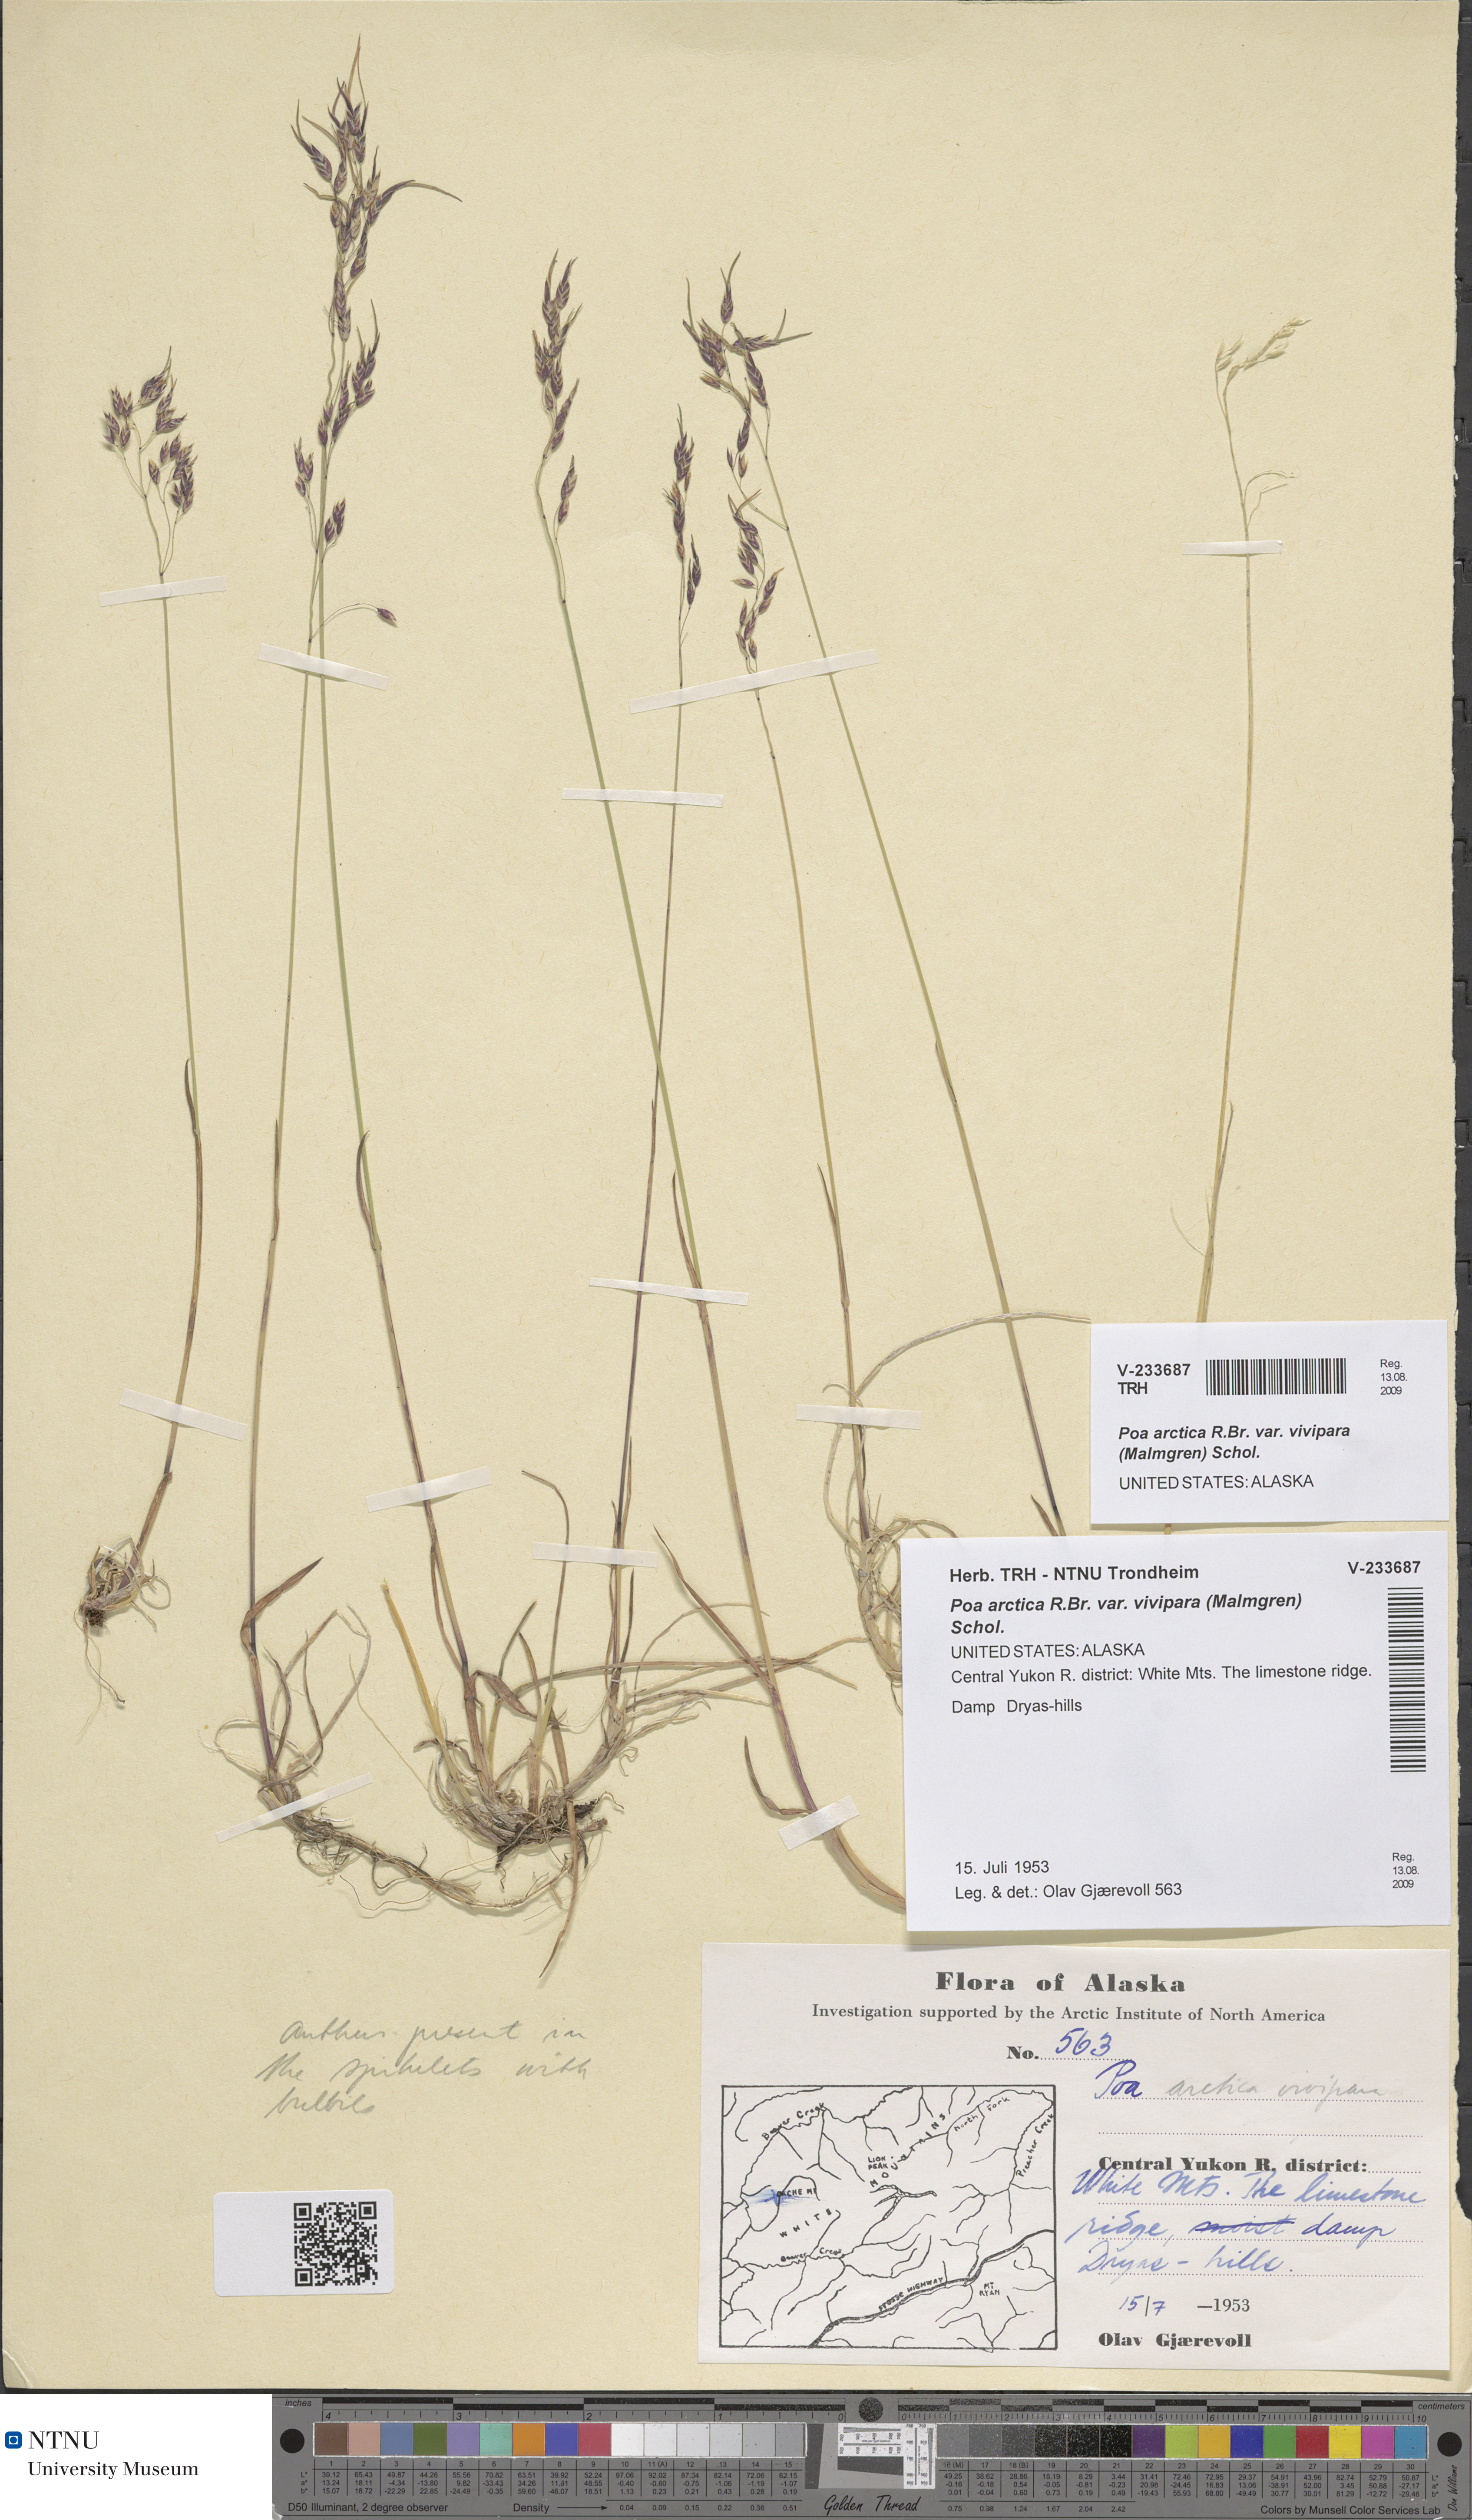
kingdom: Plantae
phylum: Tracheophyta
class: Liliopsida
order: Poales
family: Poaceae
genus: Poa
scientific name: Poa arctica
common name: Arctic bluegrass
